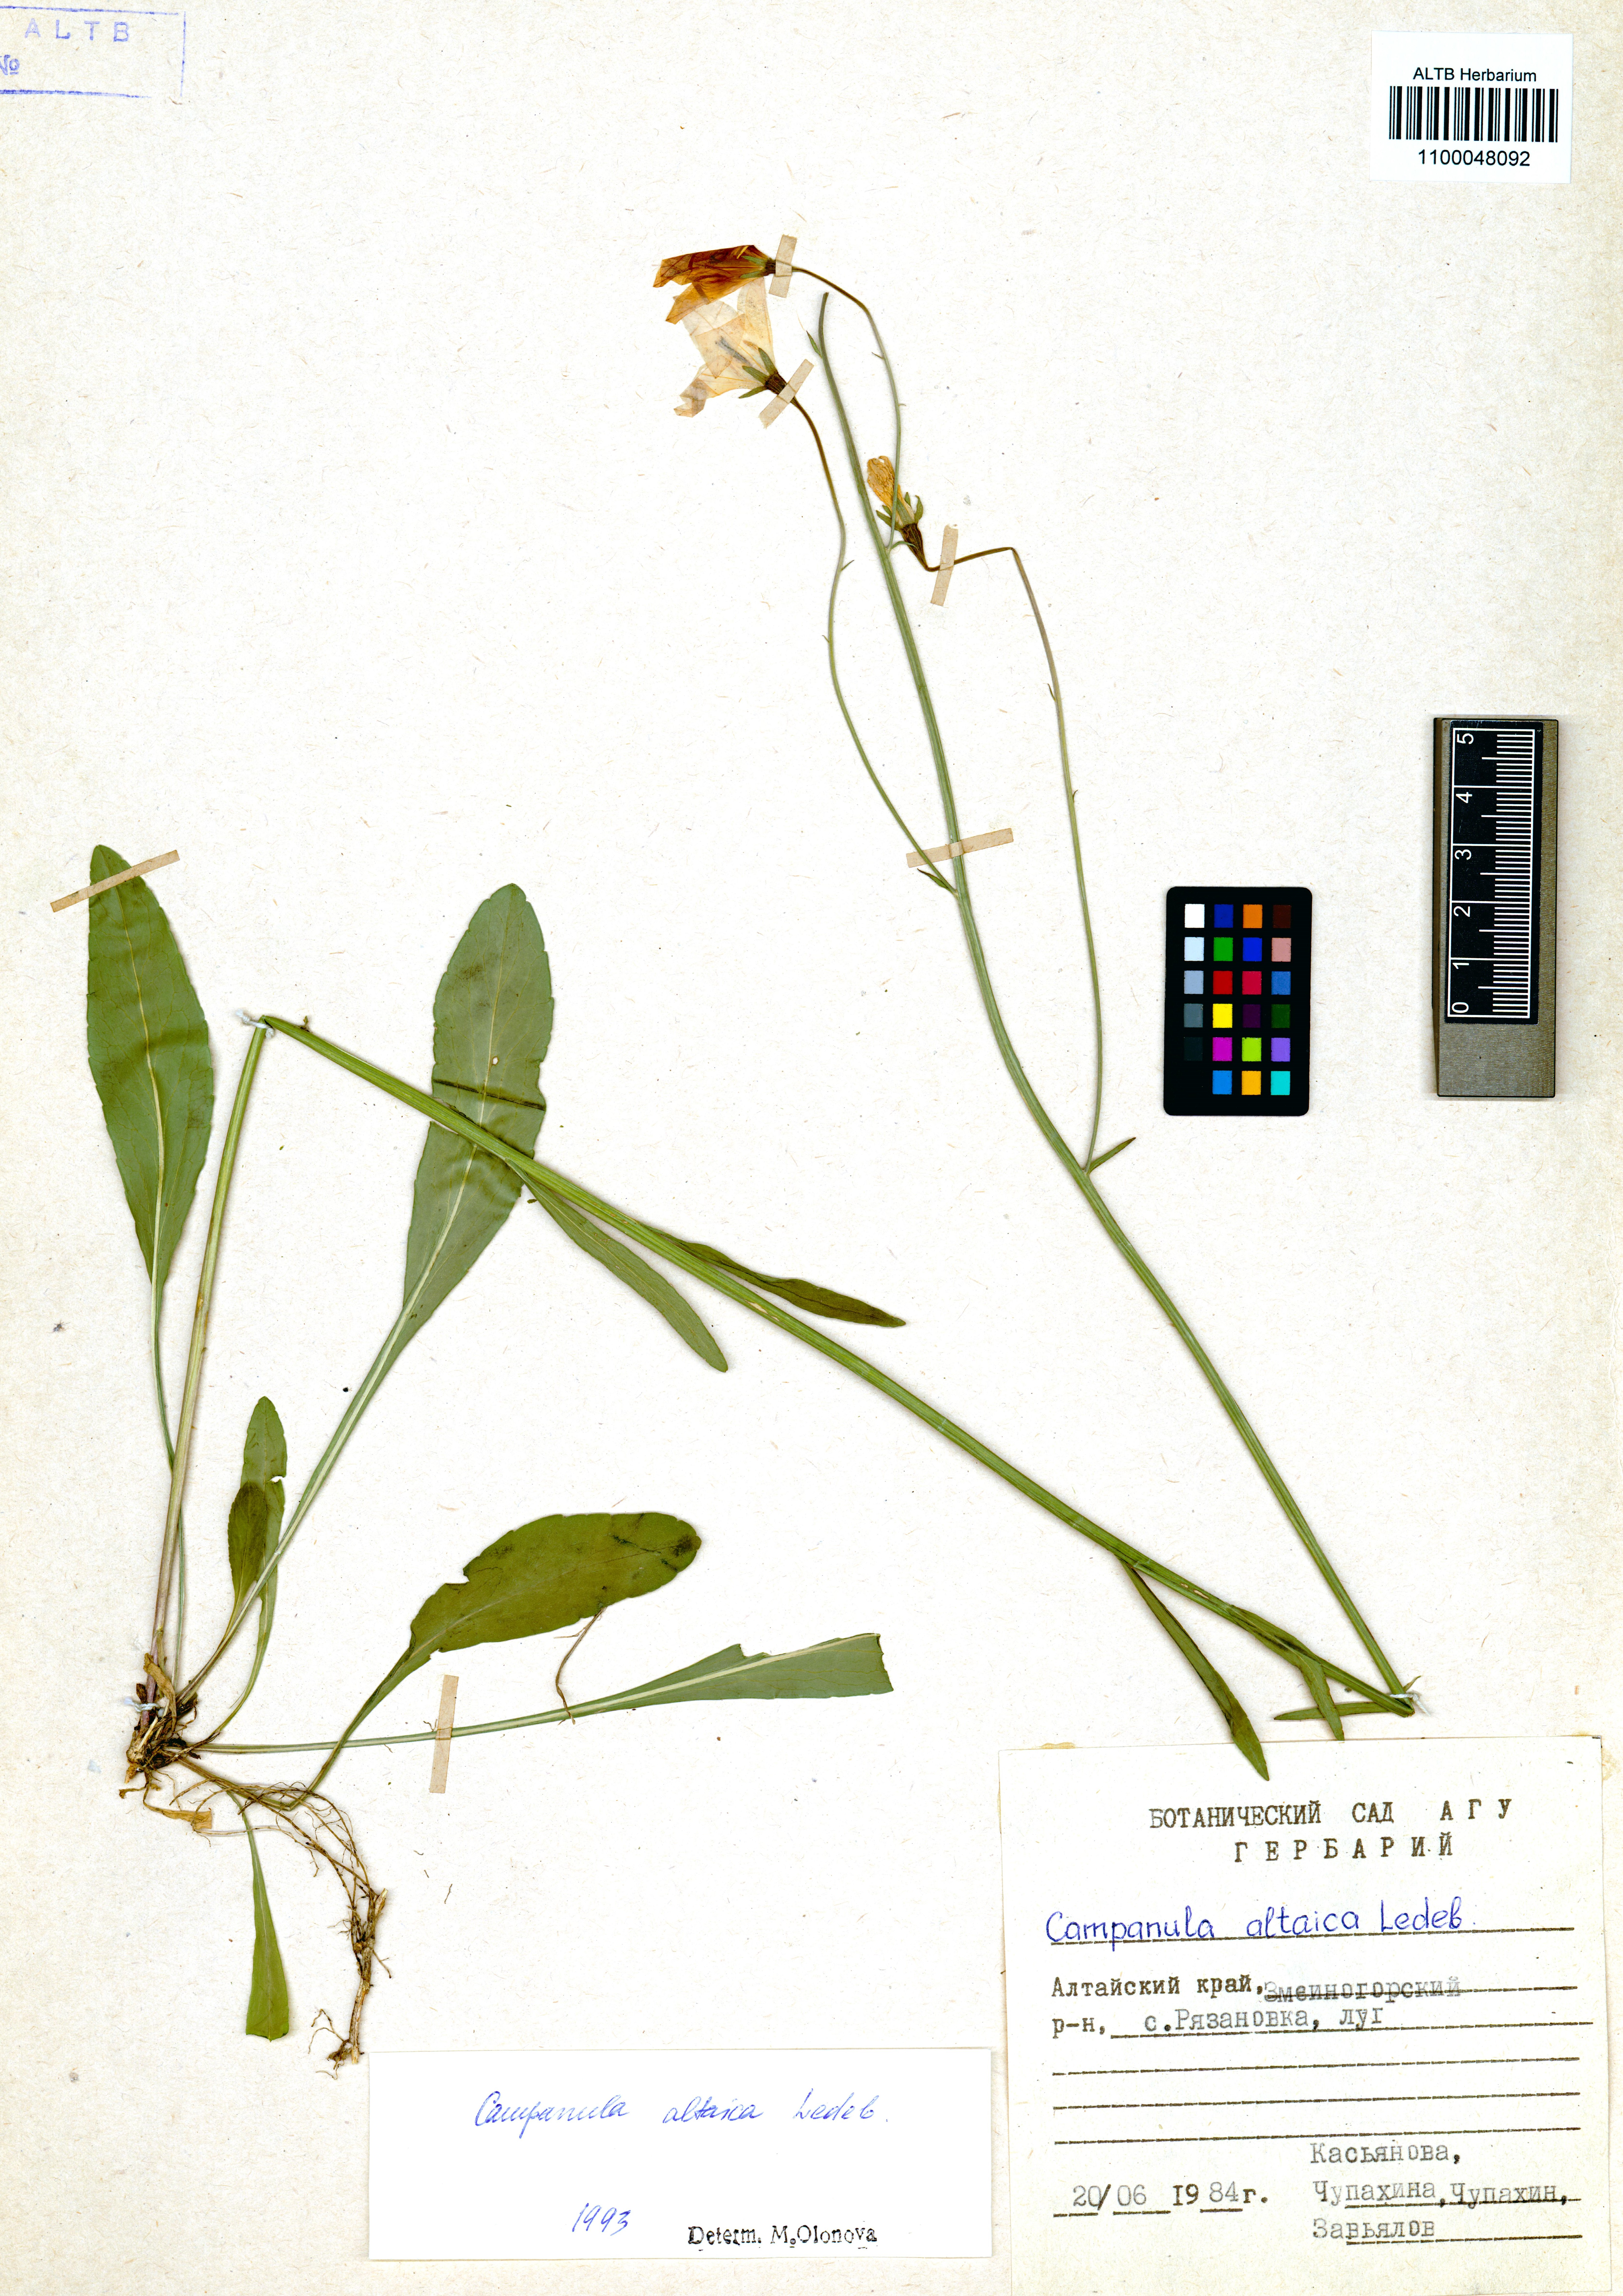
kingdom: Plantae
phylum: Tracheophyta
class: Magnoliopsida
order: Asterales
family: Campanulaceae
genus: Campanula
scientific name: Campanula stevenii
